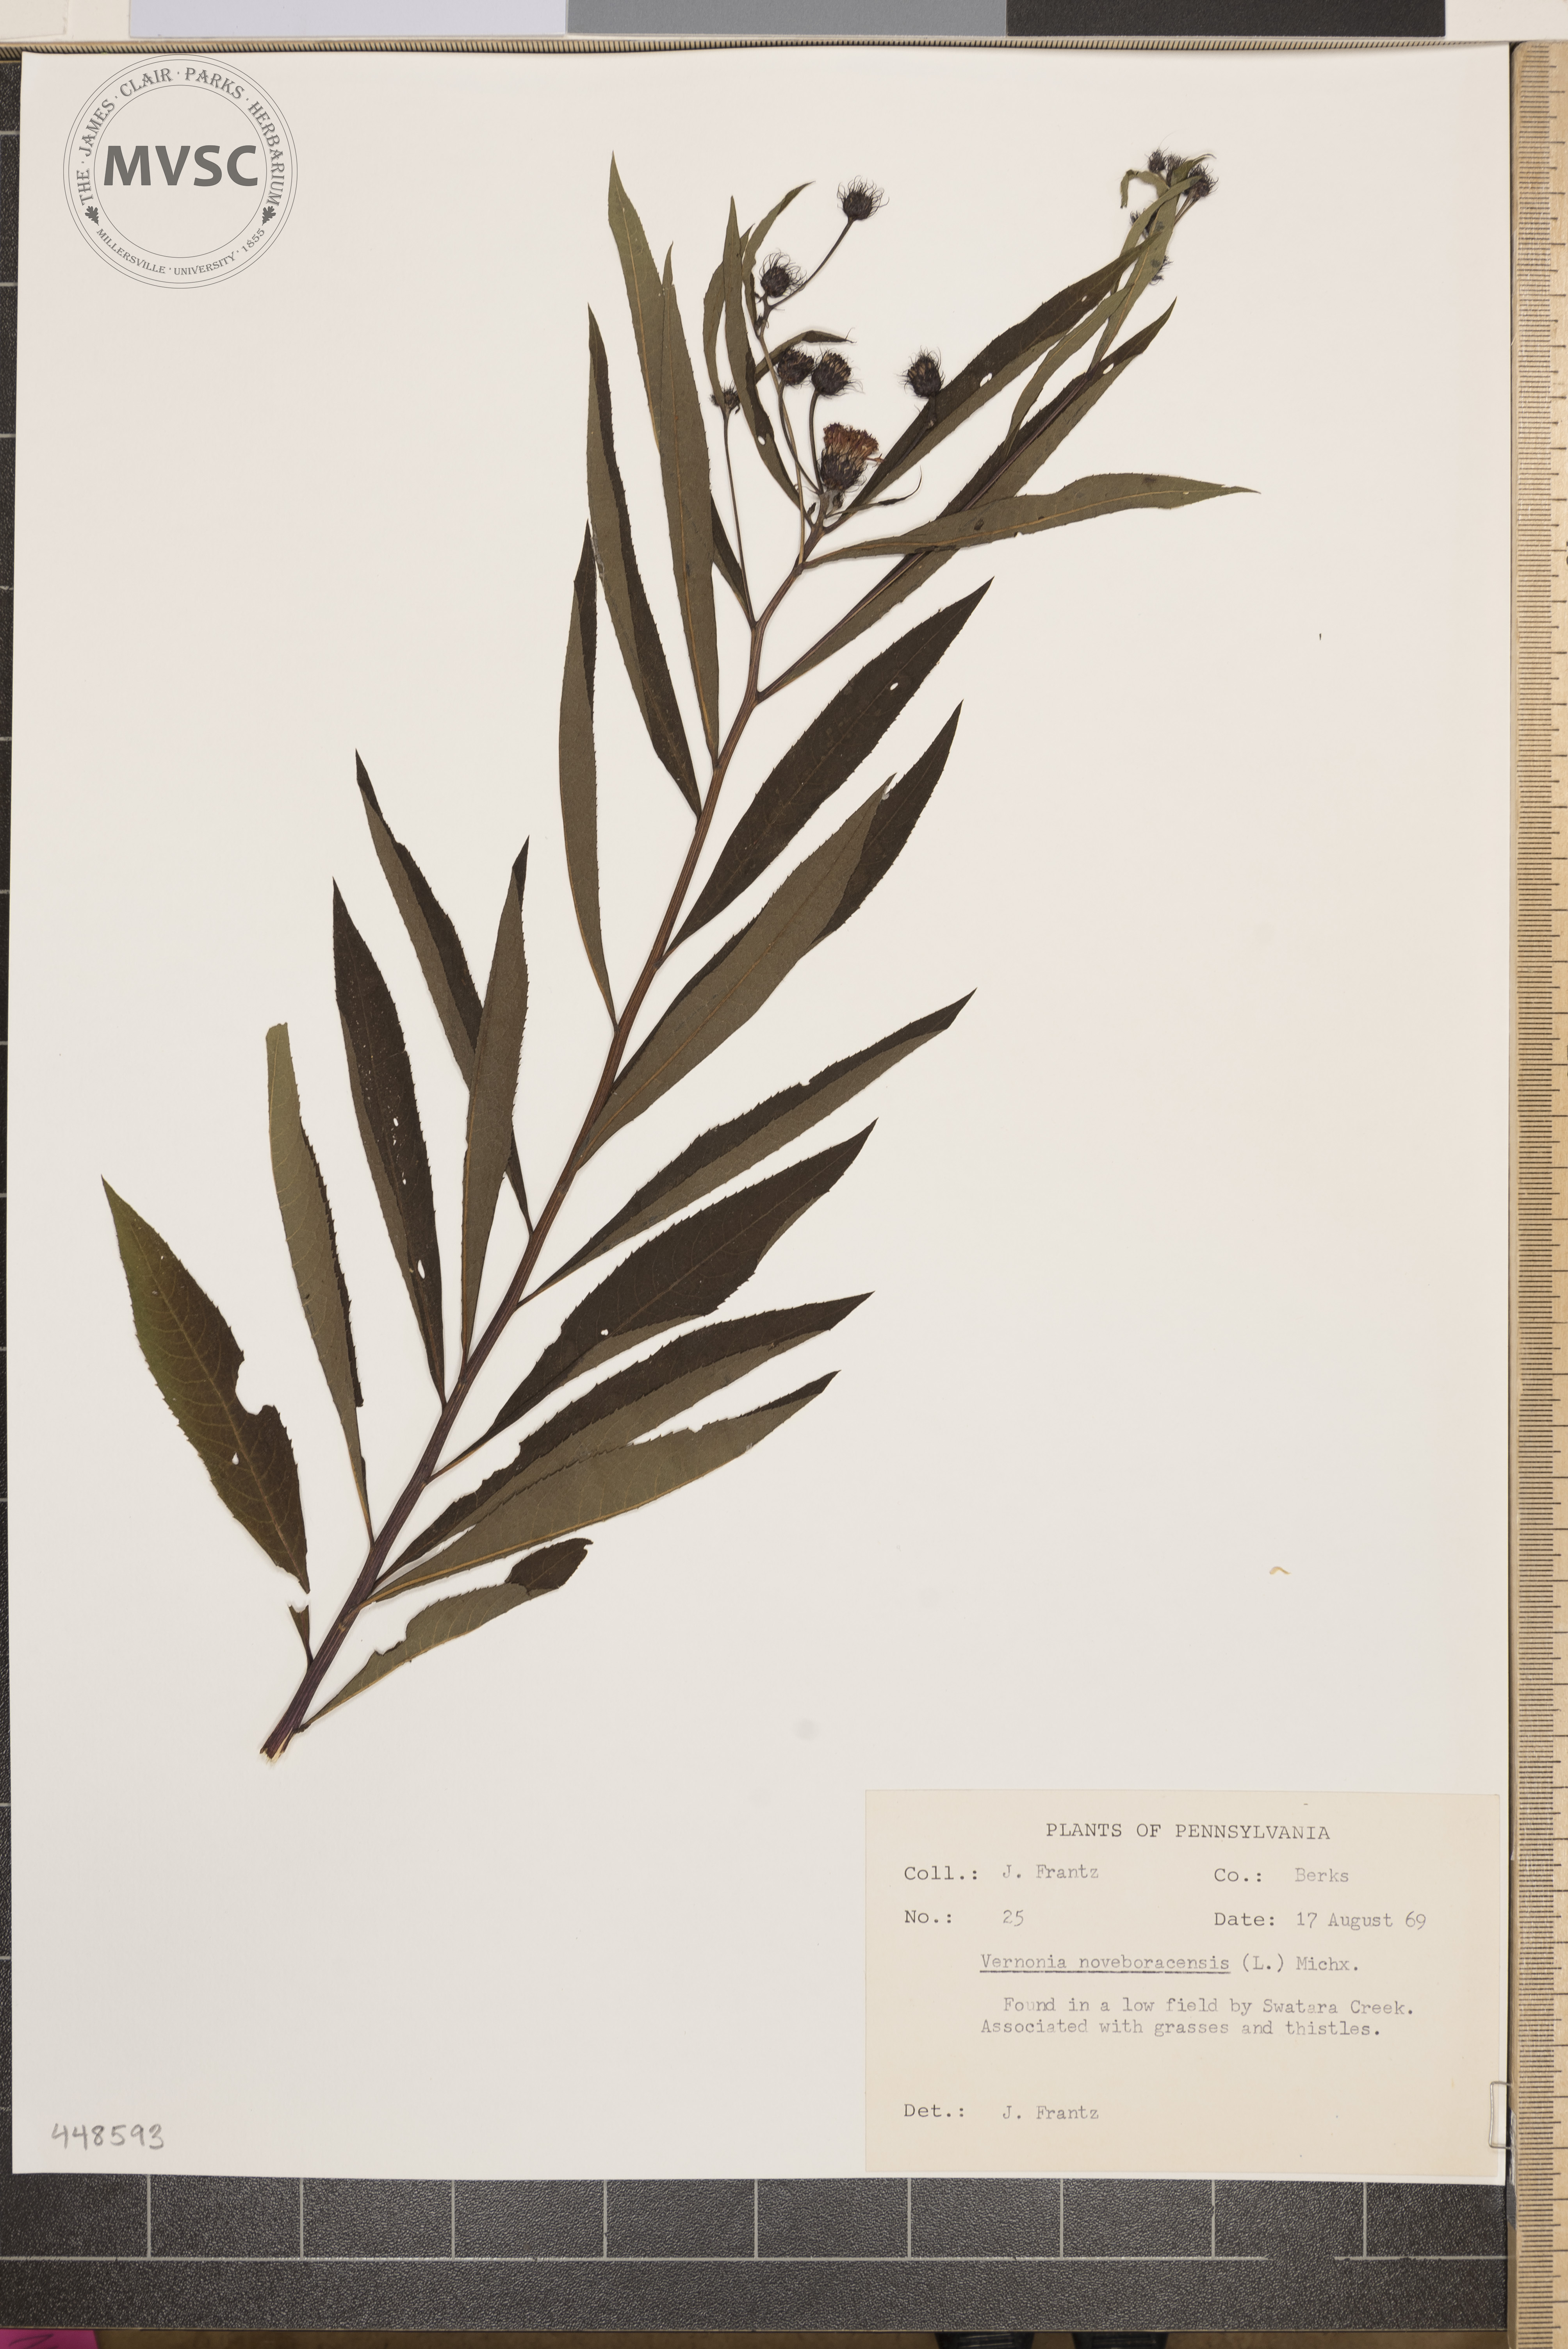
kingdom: Plantae
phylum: Tracheophyta
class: Magnoliopsida
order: Asterales
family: Asteraceae
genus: Vernonia
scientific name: Vernonia noveboracensis
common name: New york ironweed
